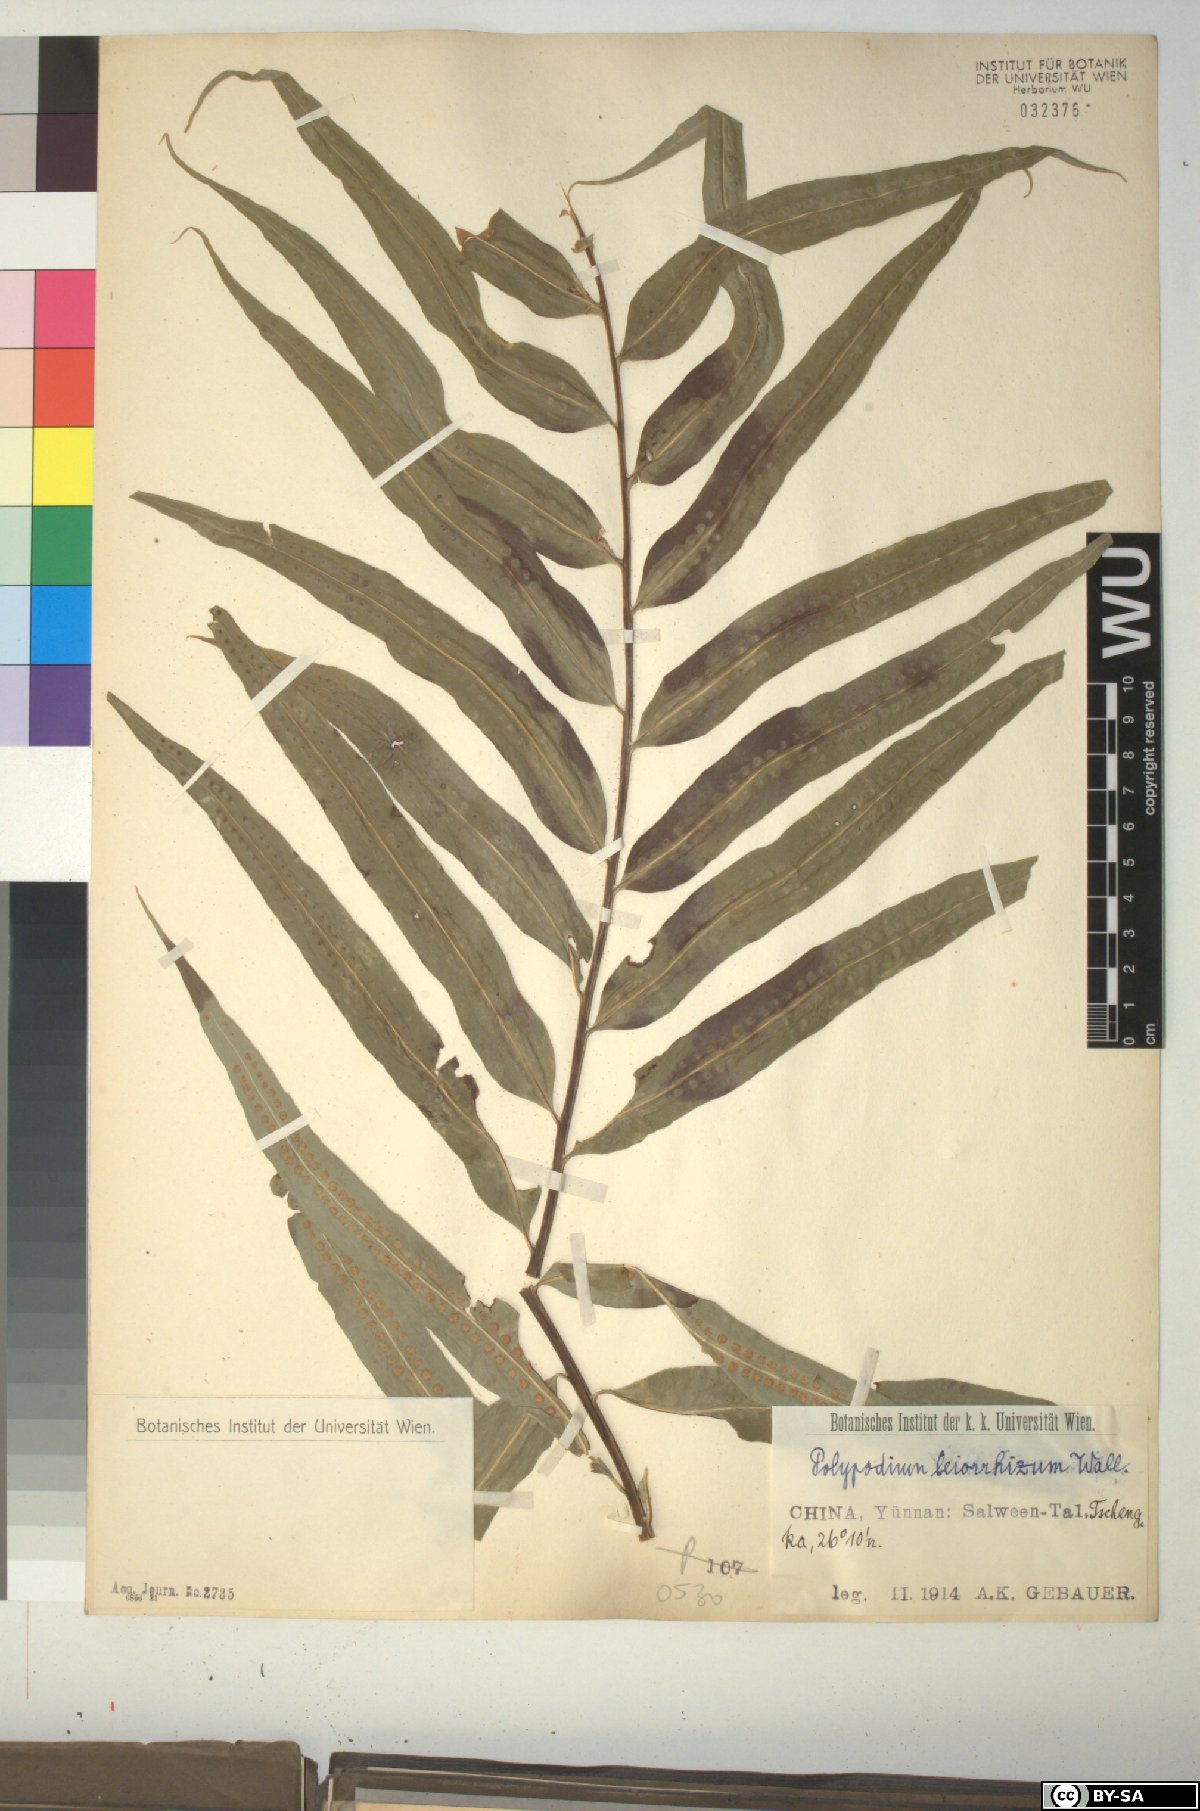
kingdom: Plantae
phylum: Tracheophyta
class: Polypodiopsida
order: Polypodiales
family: Polypodiaceae
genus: Microsorum
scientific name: Microsorum cuspidatum
